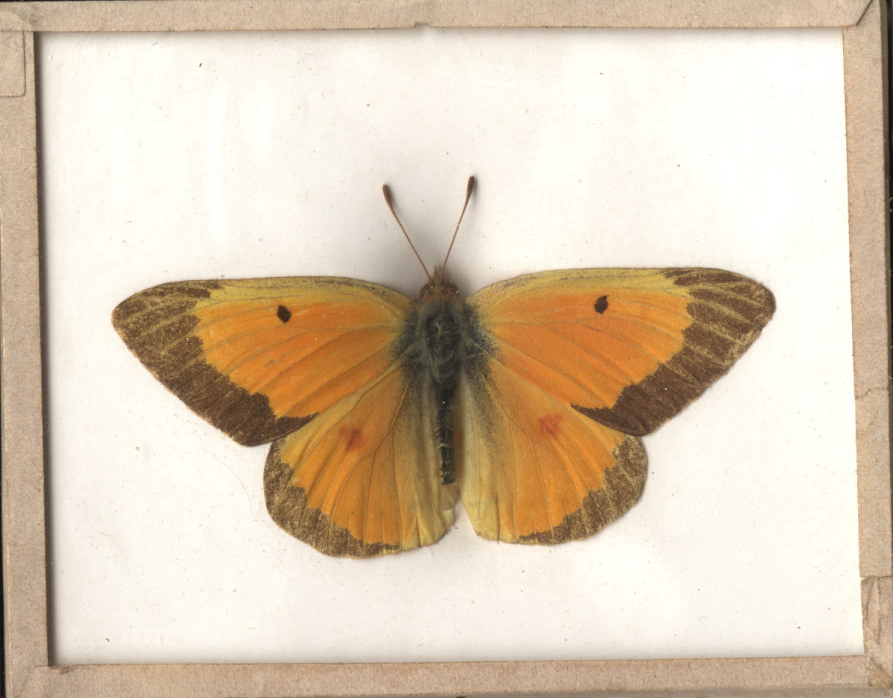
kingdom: Animalia
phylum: Arthropoda
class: Insecta
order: Lepidoptera
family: Pieridae
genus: Colias
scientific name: Colias eurytheme
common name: Orange Sulphur
